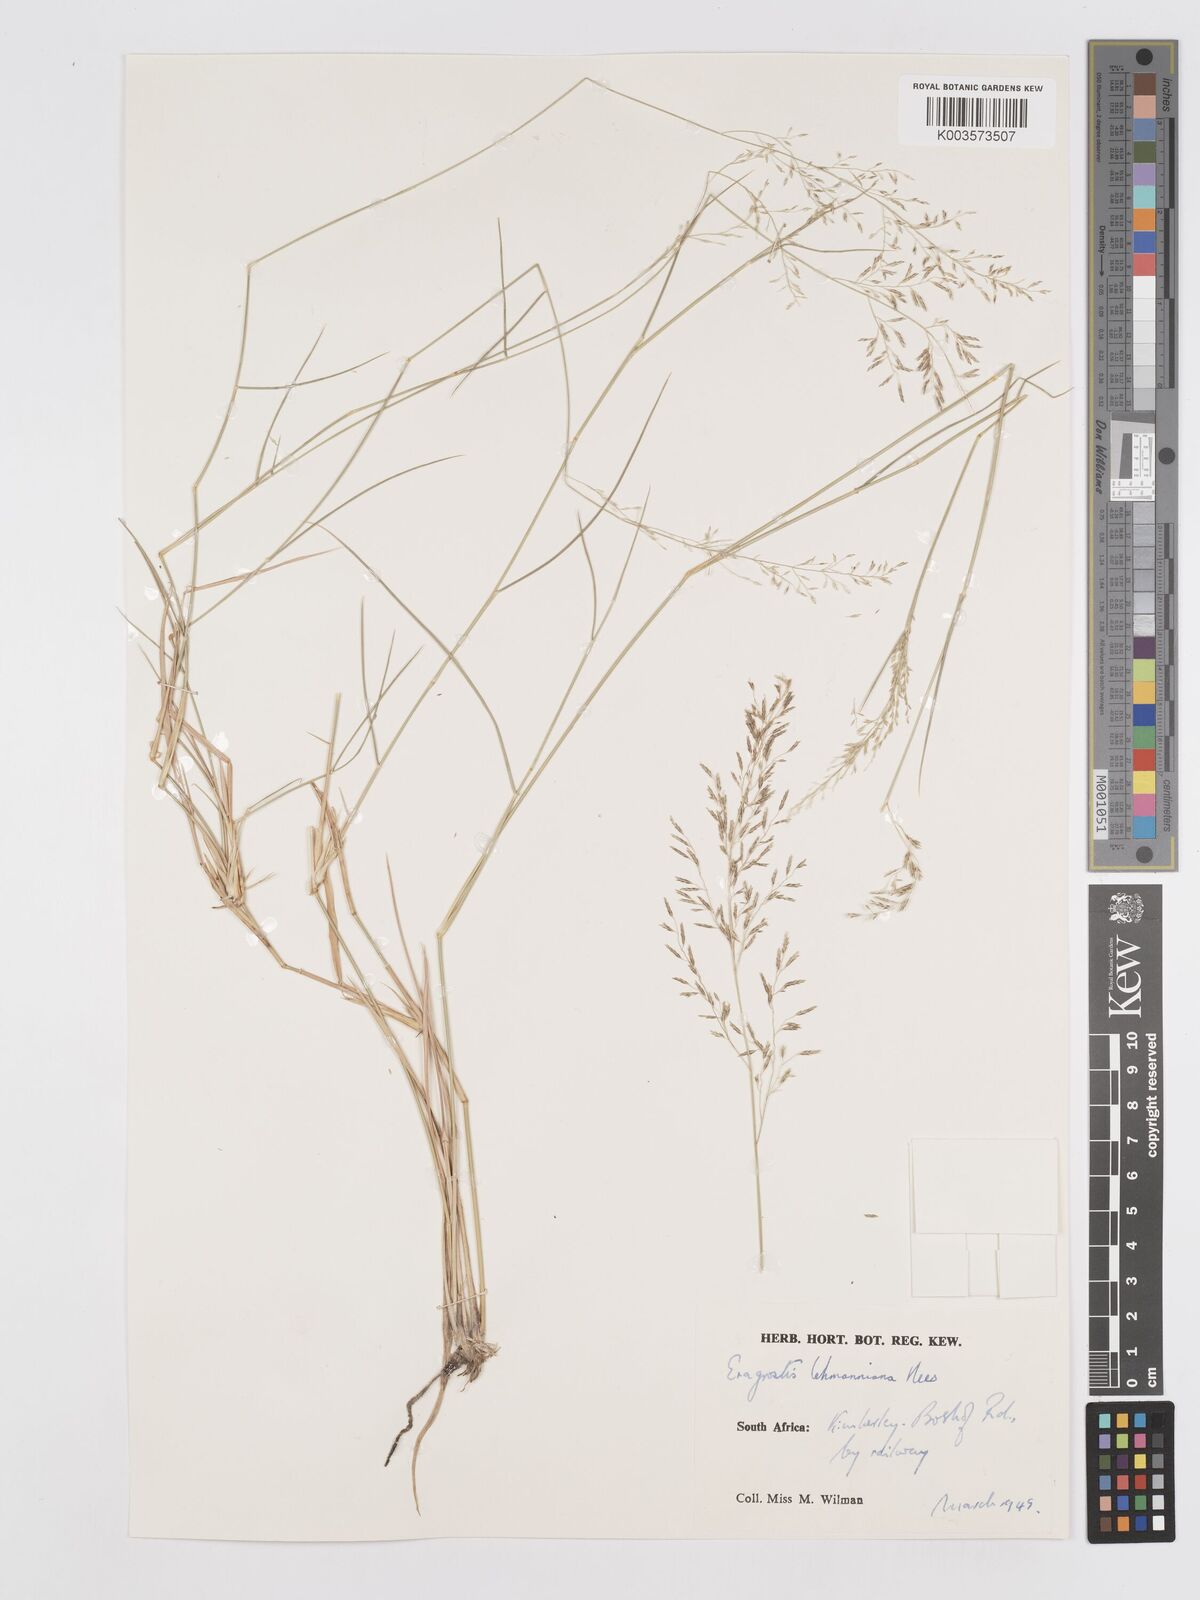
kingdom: Plantae
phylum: Tracheophyta
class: Liliopsida
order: Poales
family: Poaceae
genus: Eragrostis
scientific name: Eragrostis lehmanniana
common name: Lehmann lovegrass
